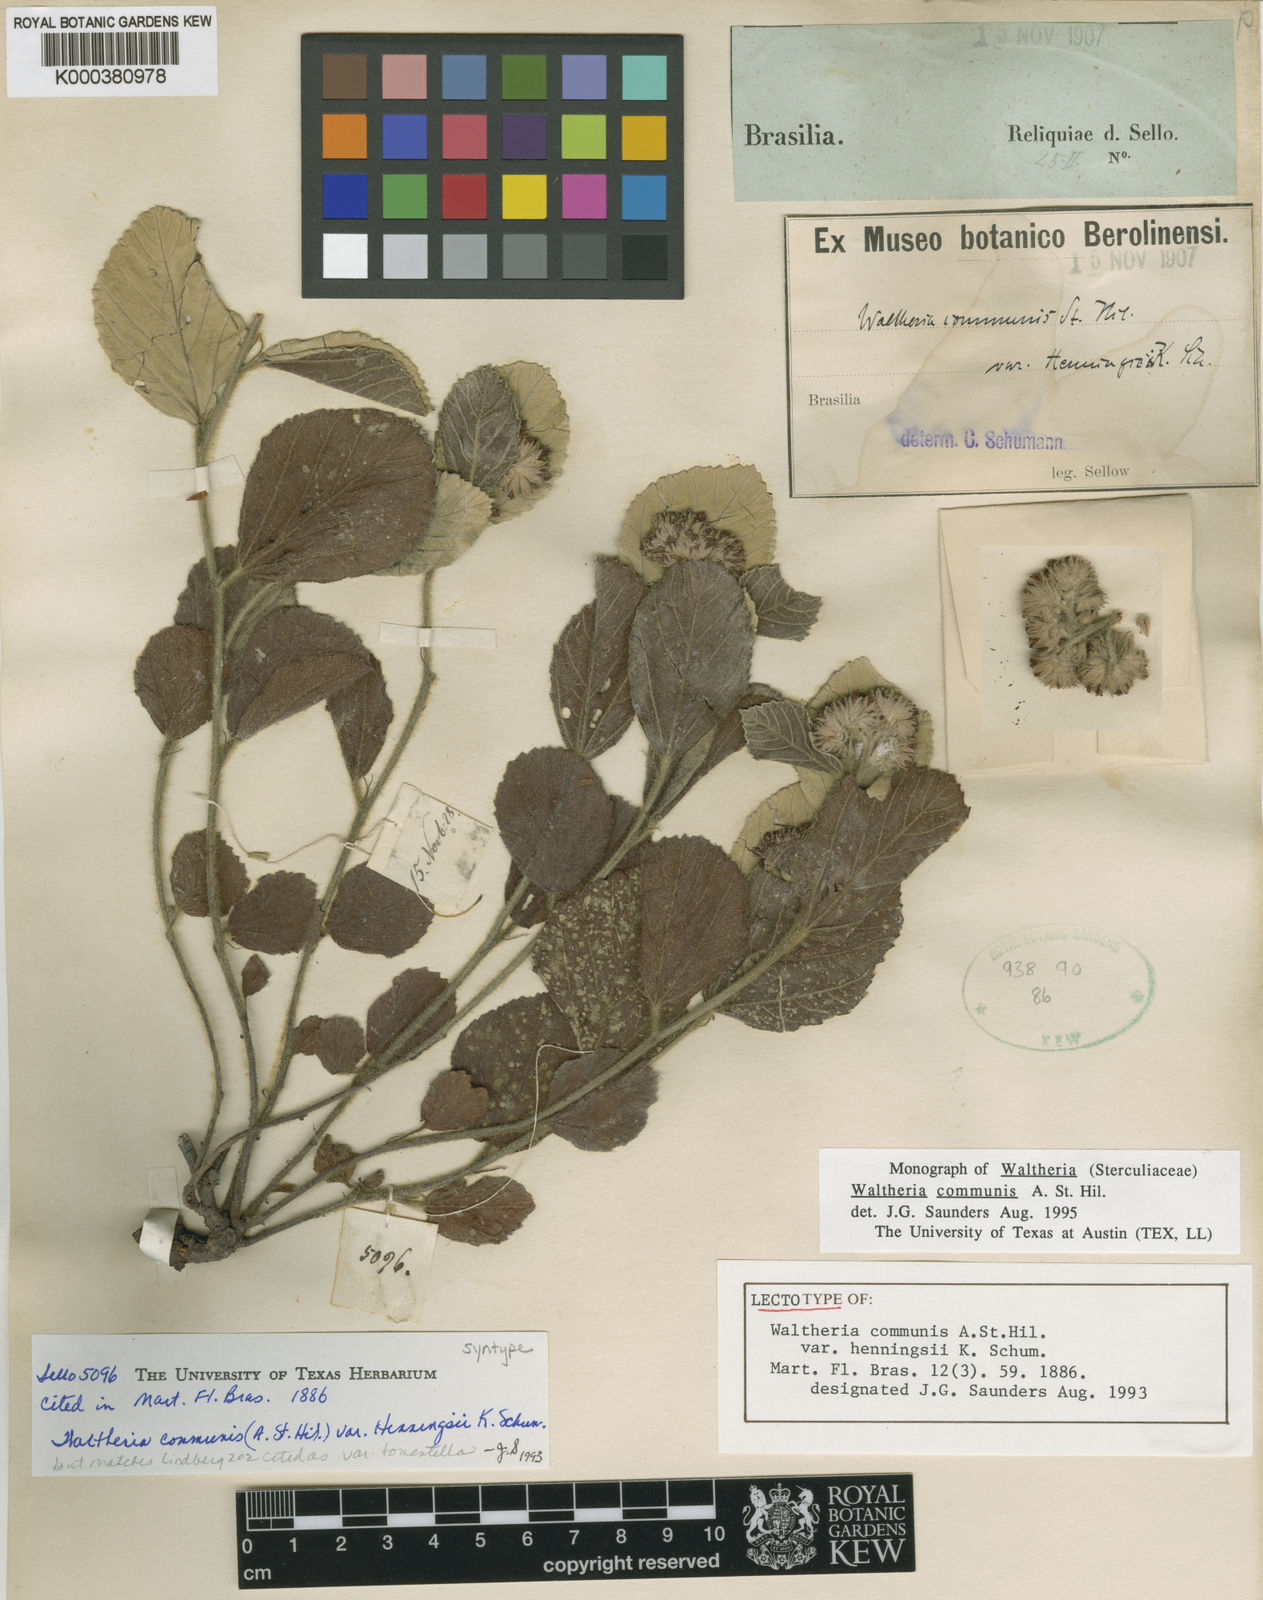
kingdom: Plantae
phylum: Tracheophyta
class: Magnoliopsida
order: Malvales
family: Malvaceae
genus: Waltheria
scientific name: Waltheria communis
